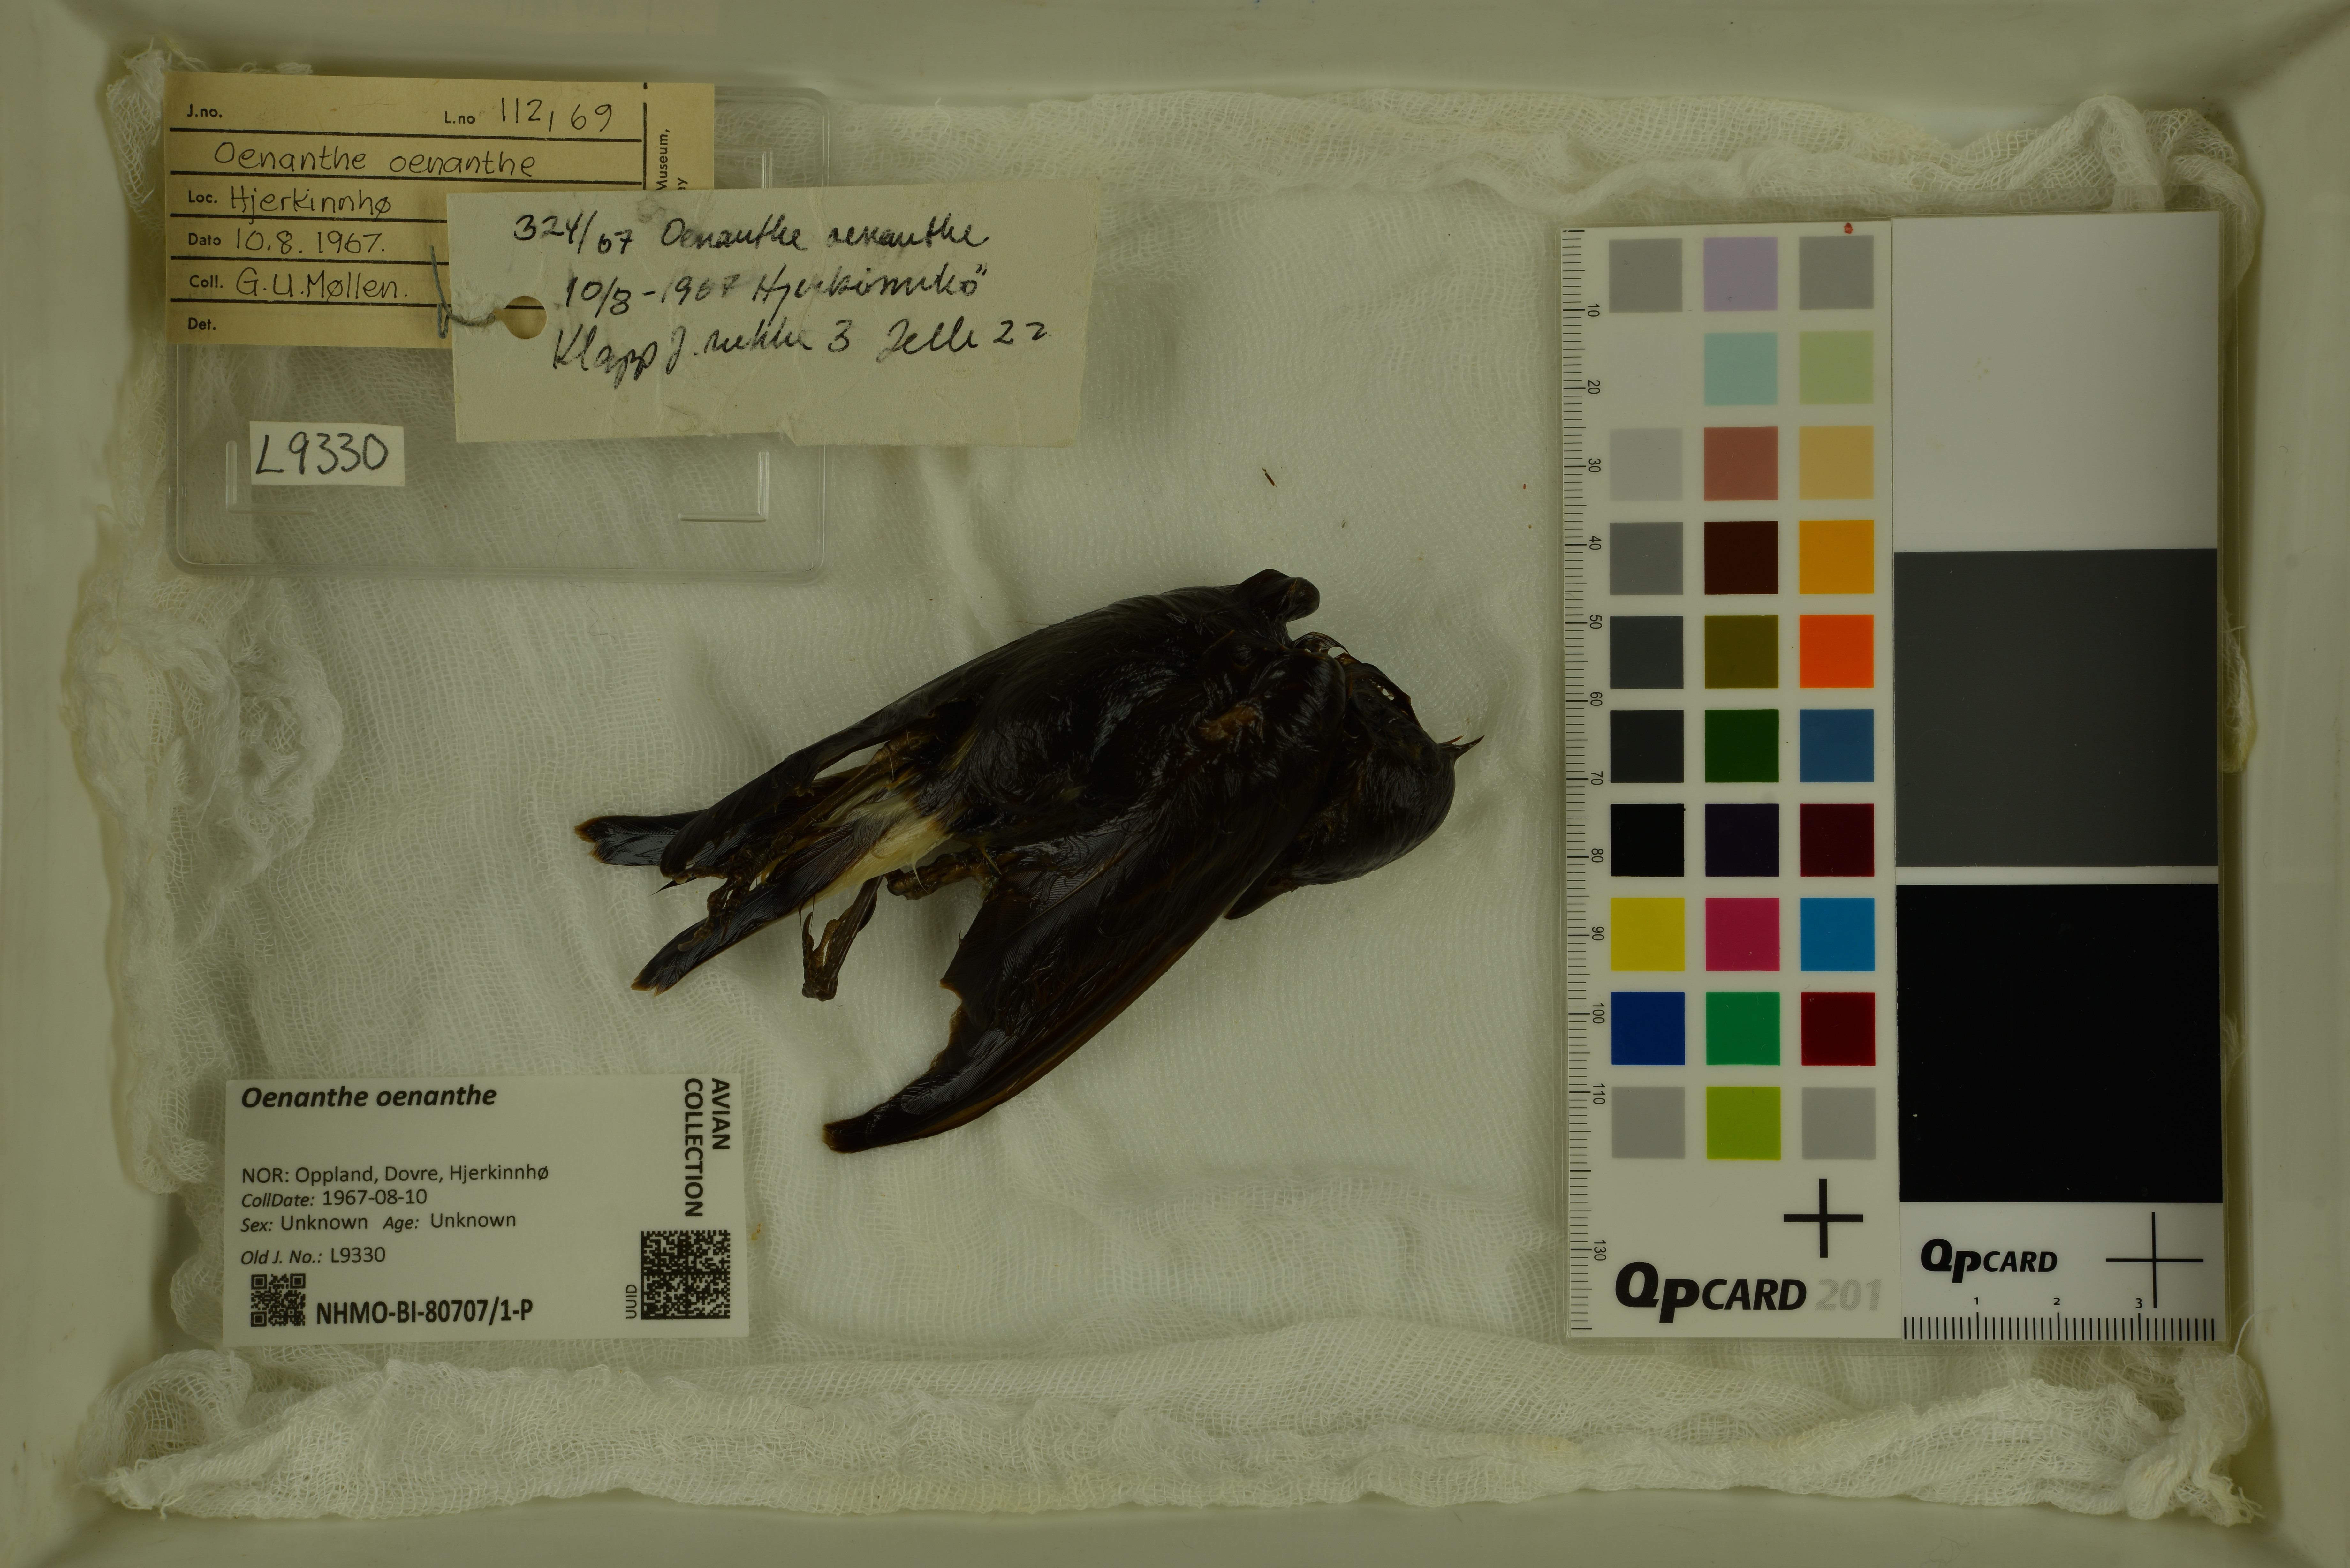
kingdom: Animalia
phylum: Chordata
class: Aves
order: Passeriformes
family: Muscicapidae
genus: Oenanthe
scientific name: Oenanthe oenanthe
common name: Northern wheatear
